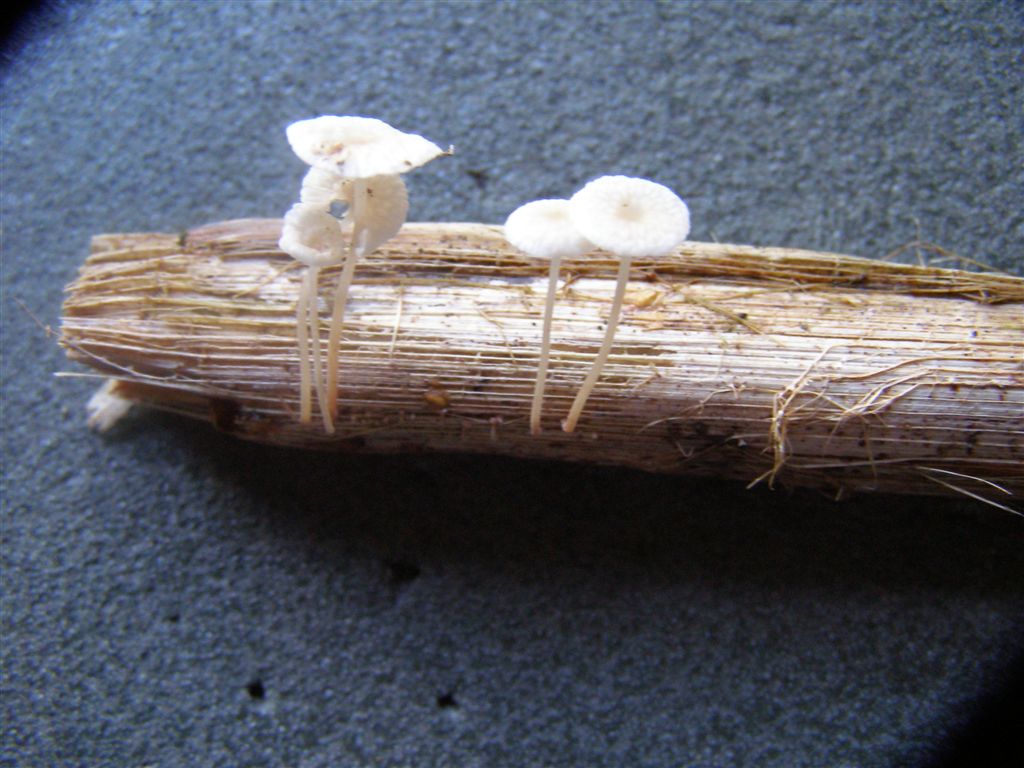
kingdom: Fungi
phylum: Basidiomycota
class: Agaricomycetes
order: Agaricales
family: Omphalotaceae
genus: Collybiopsis
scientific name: Collybiopsis vaillantii
